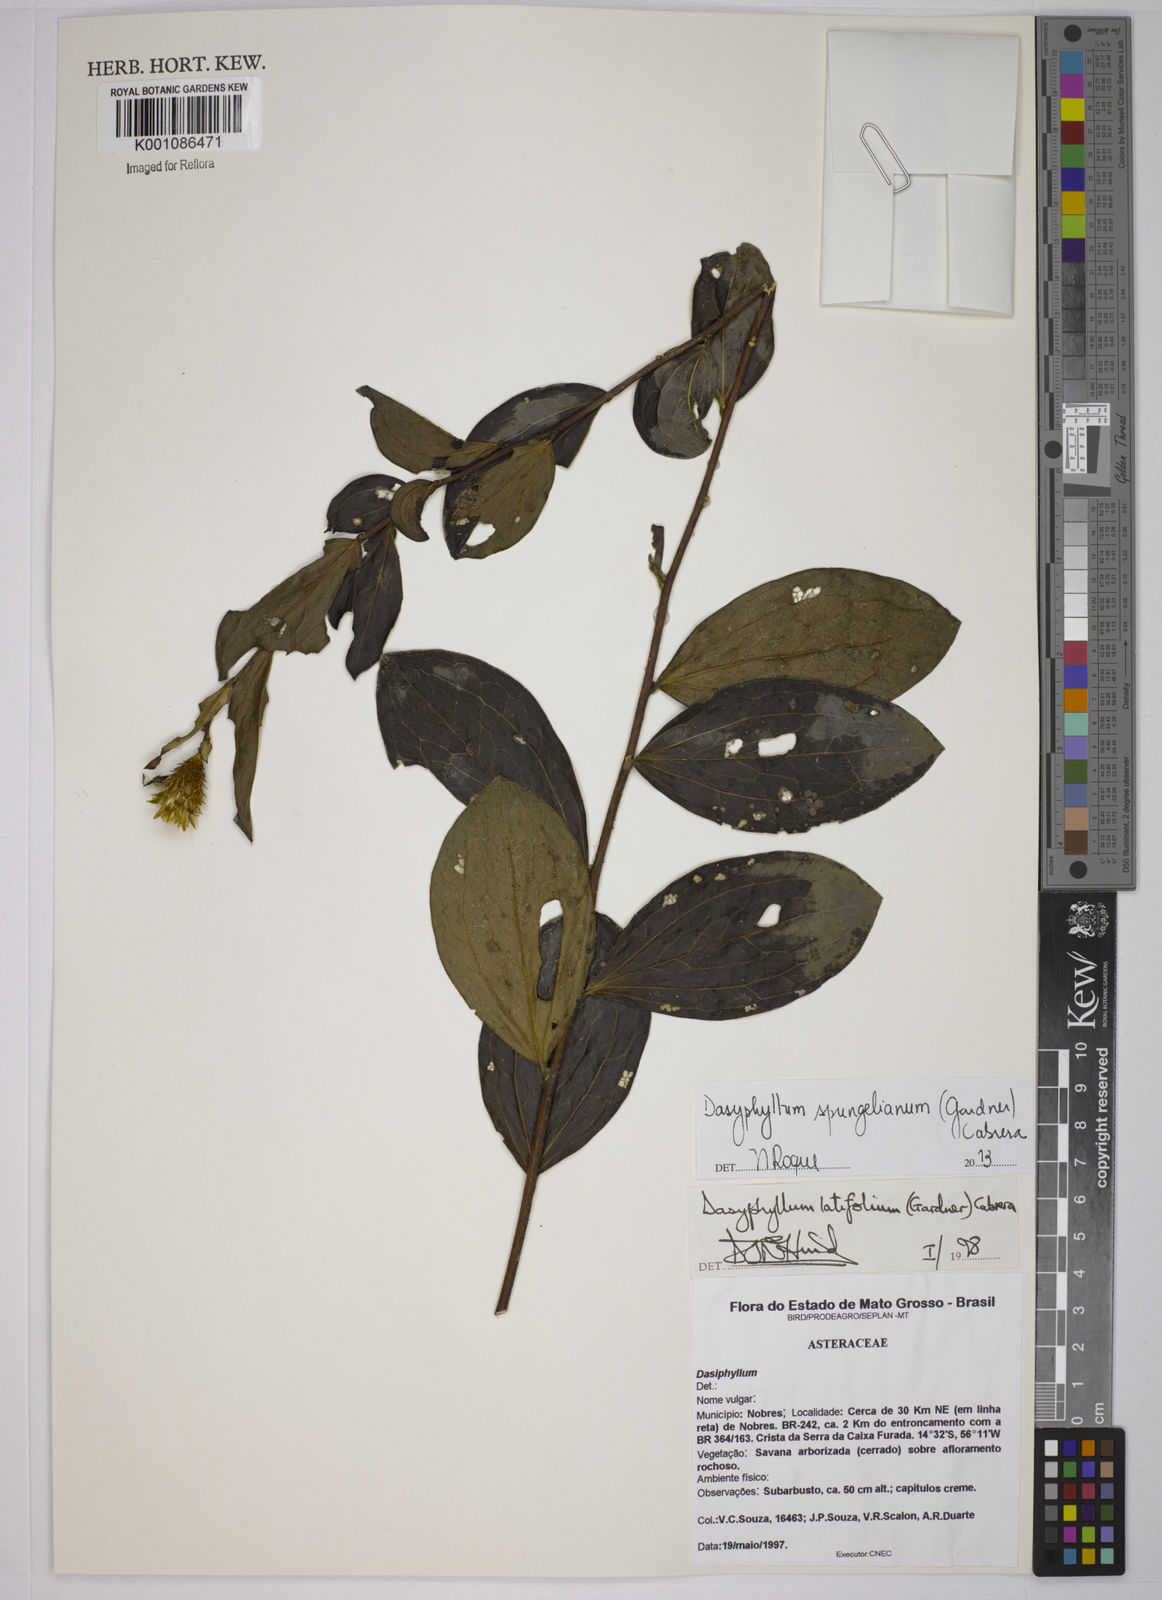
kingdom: Plantae
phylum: Tracheophyta
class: Magnoliopsida
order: Asterales
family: Asteraceae
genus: Dasyphyllum
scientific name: Dasyphyllum sprengelianum
